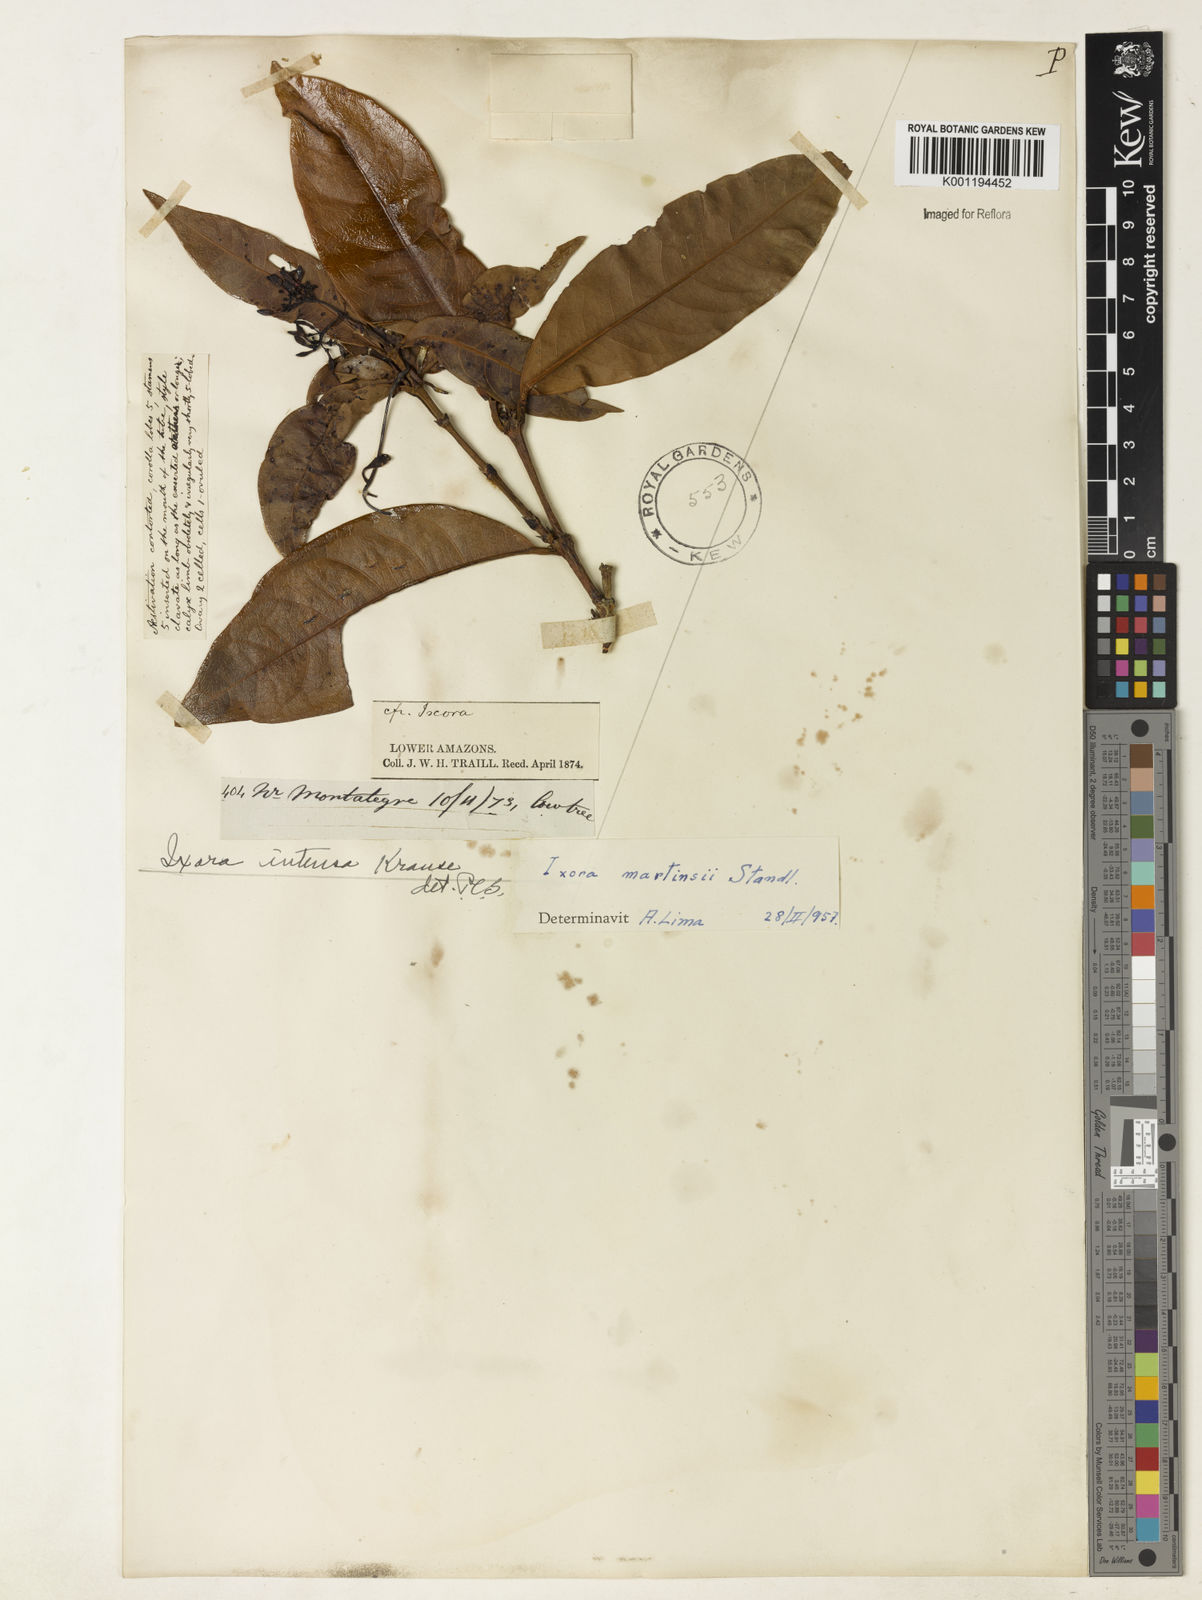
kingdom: Plantae
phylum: Tracheophyta
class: Magnoliopsida
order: Gentianales
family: Rubiaceae
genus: Ixora
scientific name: Ixora martinsii
